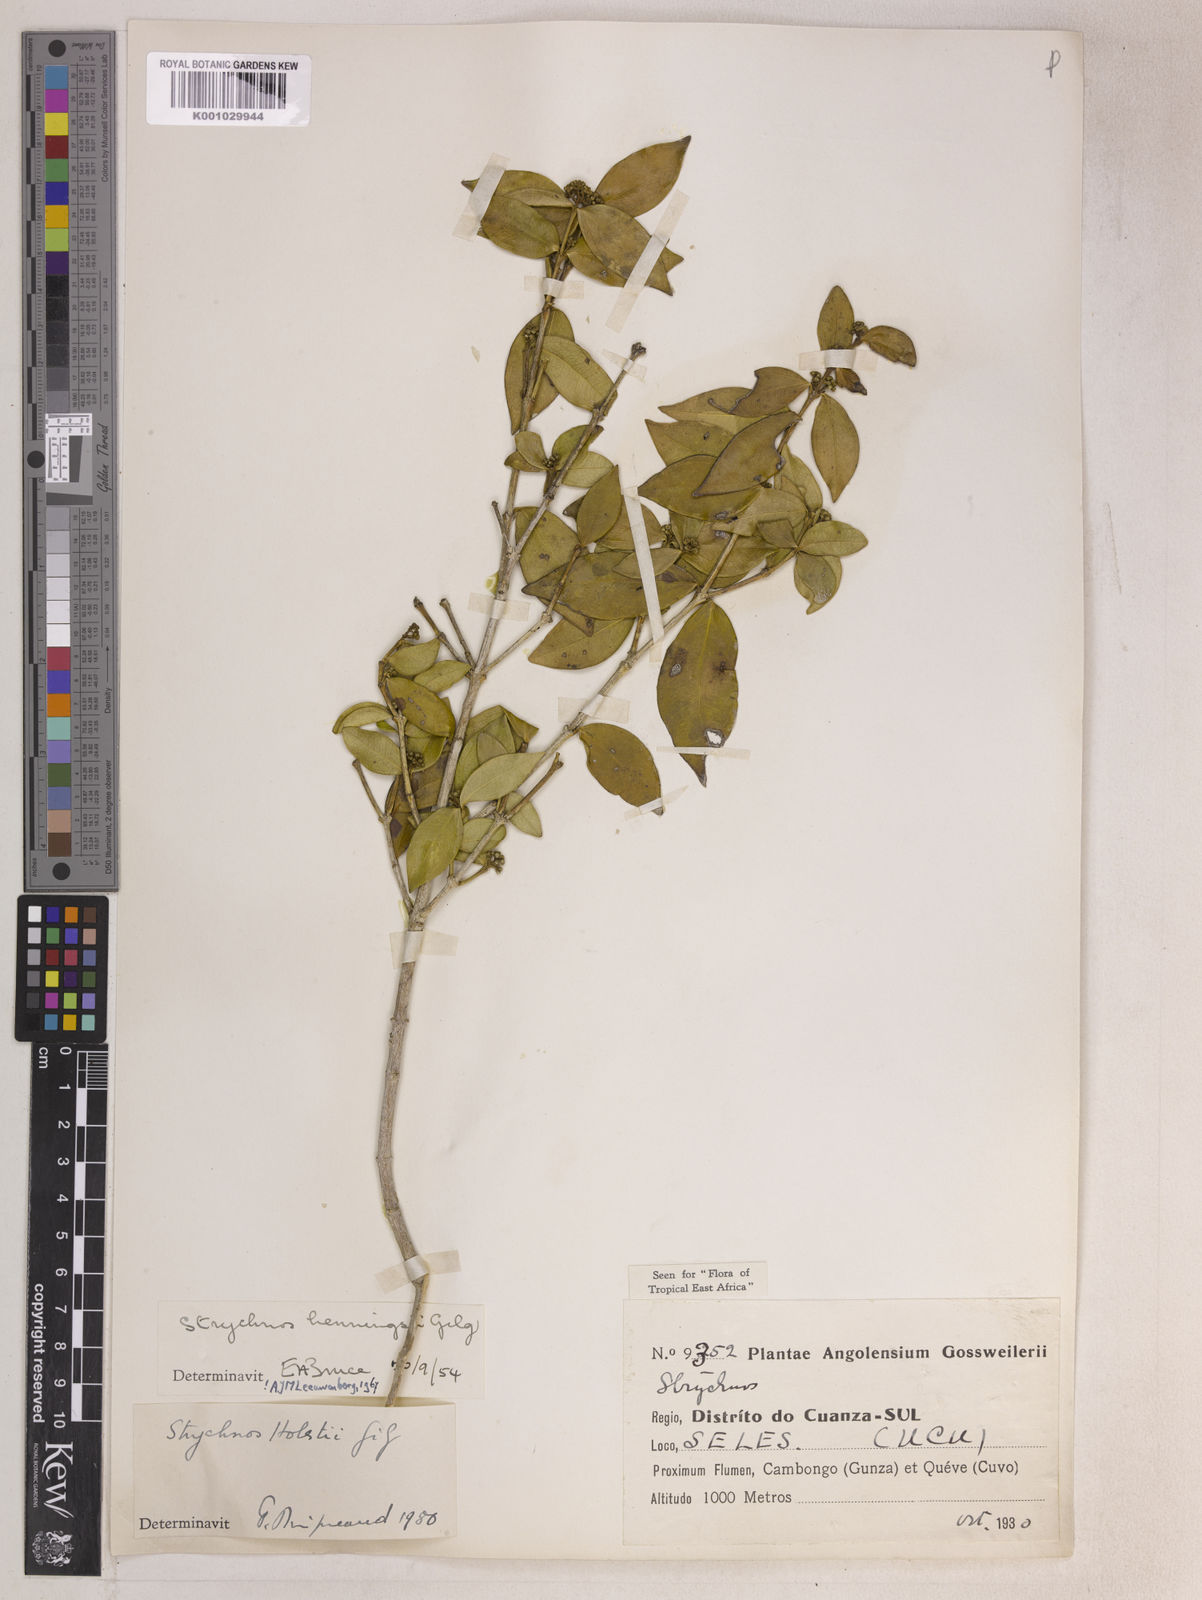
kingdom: Plantae
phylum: Tracheophyta
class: Magnoliopsida
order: Gentianales
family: Loganiaceae
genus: Strychnos
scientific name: Strychnos henningsii
